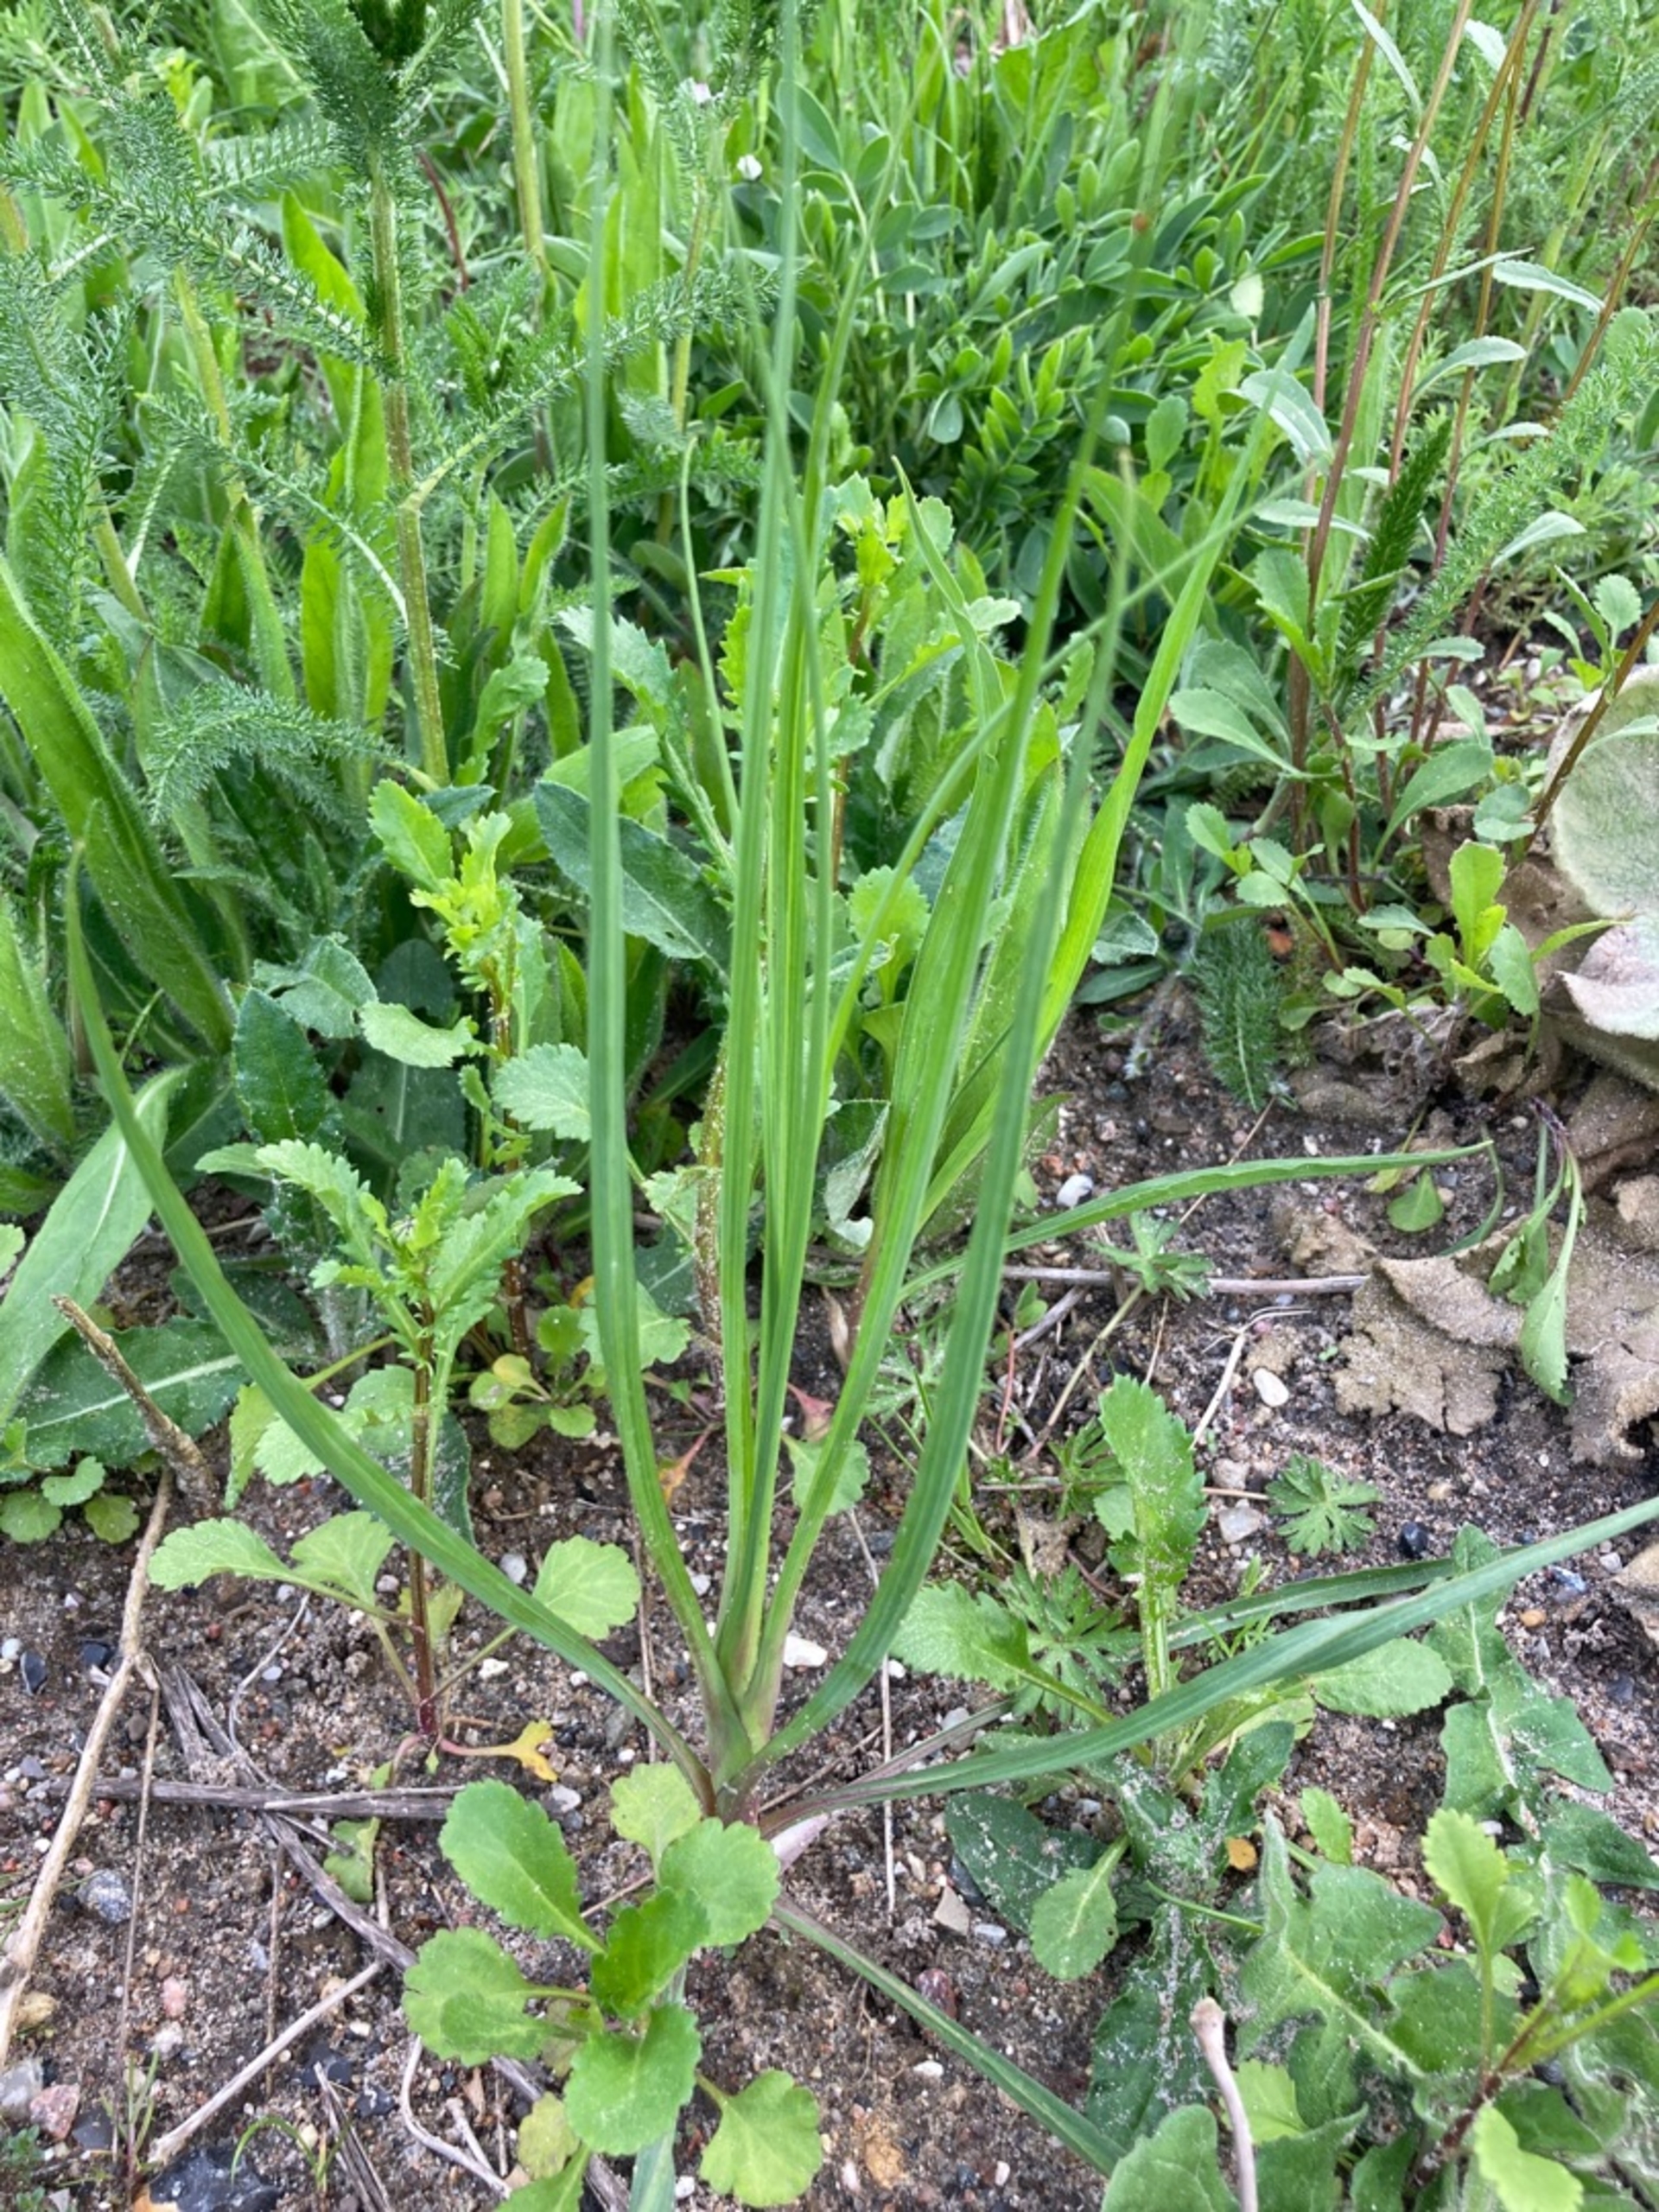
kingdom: Plantae
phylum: Tracheophyta
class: Magnoliopsida
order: Asterales
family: Asteraceae
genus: Tragopogon
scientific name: Tragopogon
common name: Gedeskægslægten
